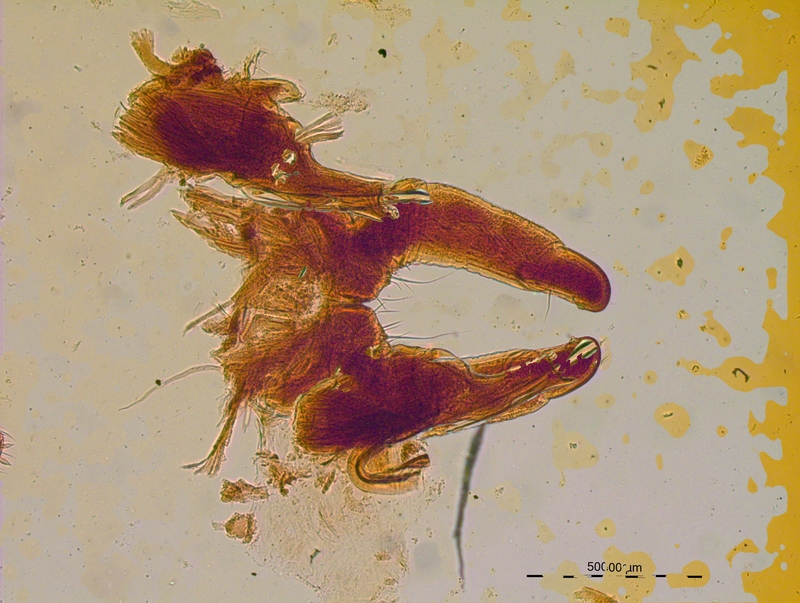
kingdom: Animalia
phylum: Arthropoda
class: Diplopoda
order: Julida
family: Mongoliulidae
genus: Paraprotopus
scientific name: Paraprotopus inferus
